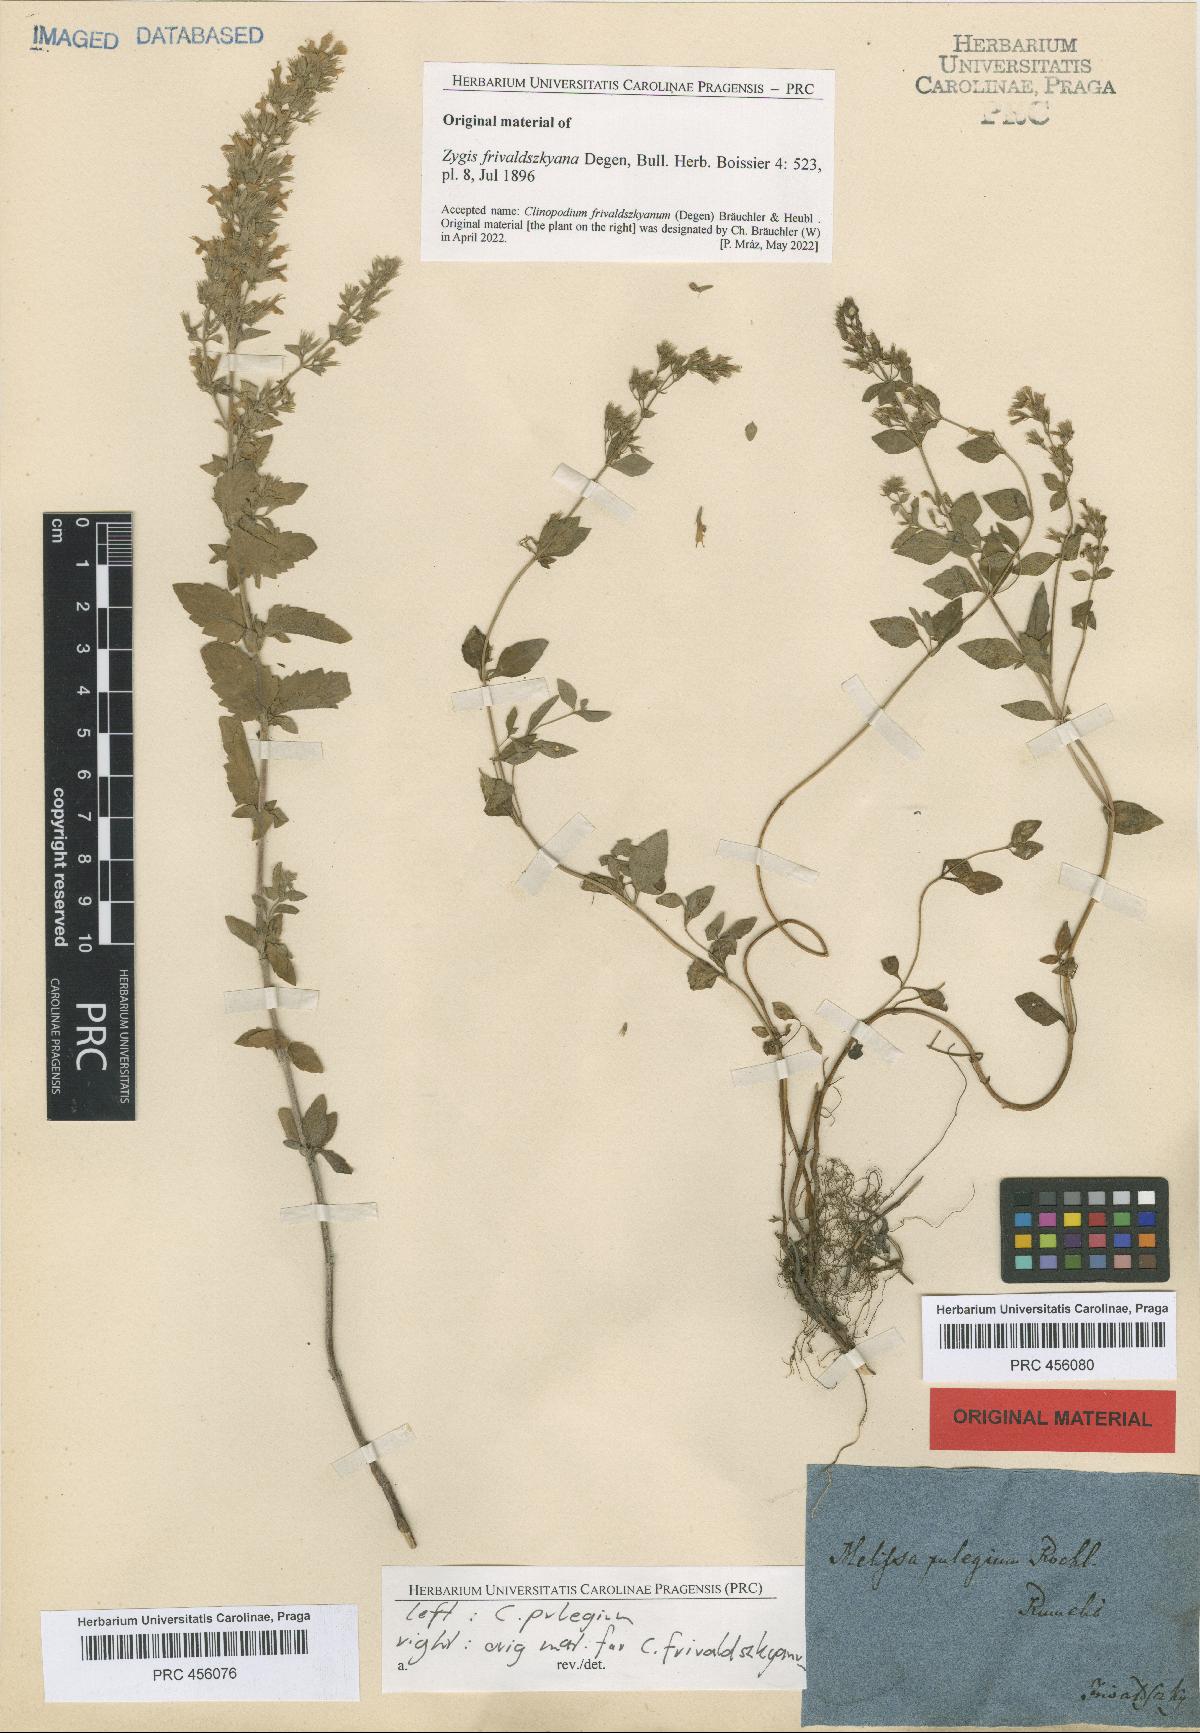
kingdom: Plantae
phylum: Tracheophyta
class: Magnoliopsida
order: Lamiales
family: Lamiaceae
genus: Clinopodium
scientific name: Clinopodium pulegium
